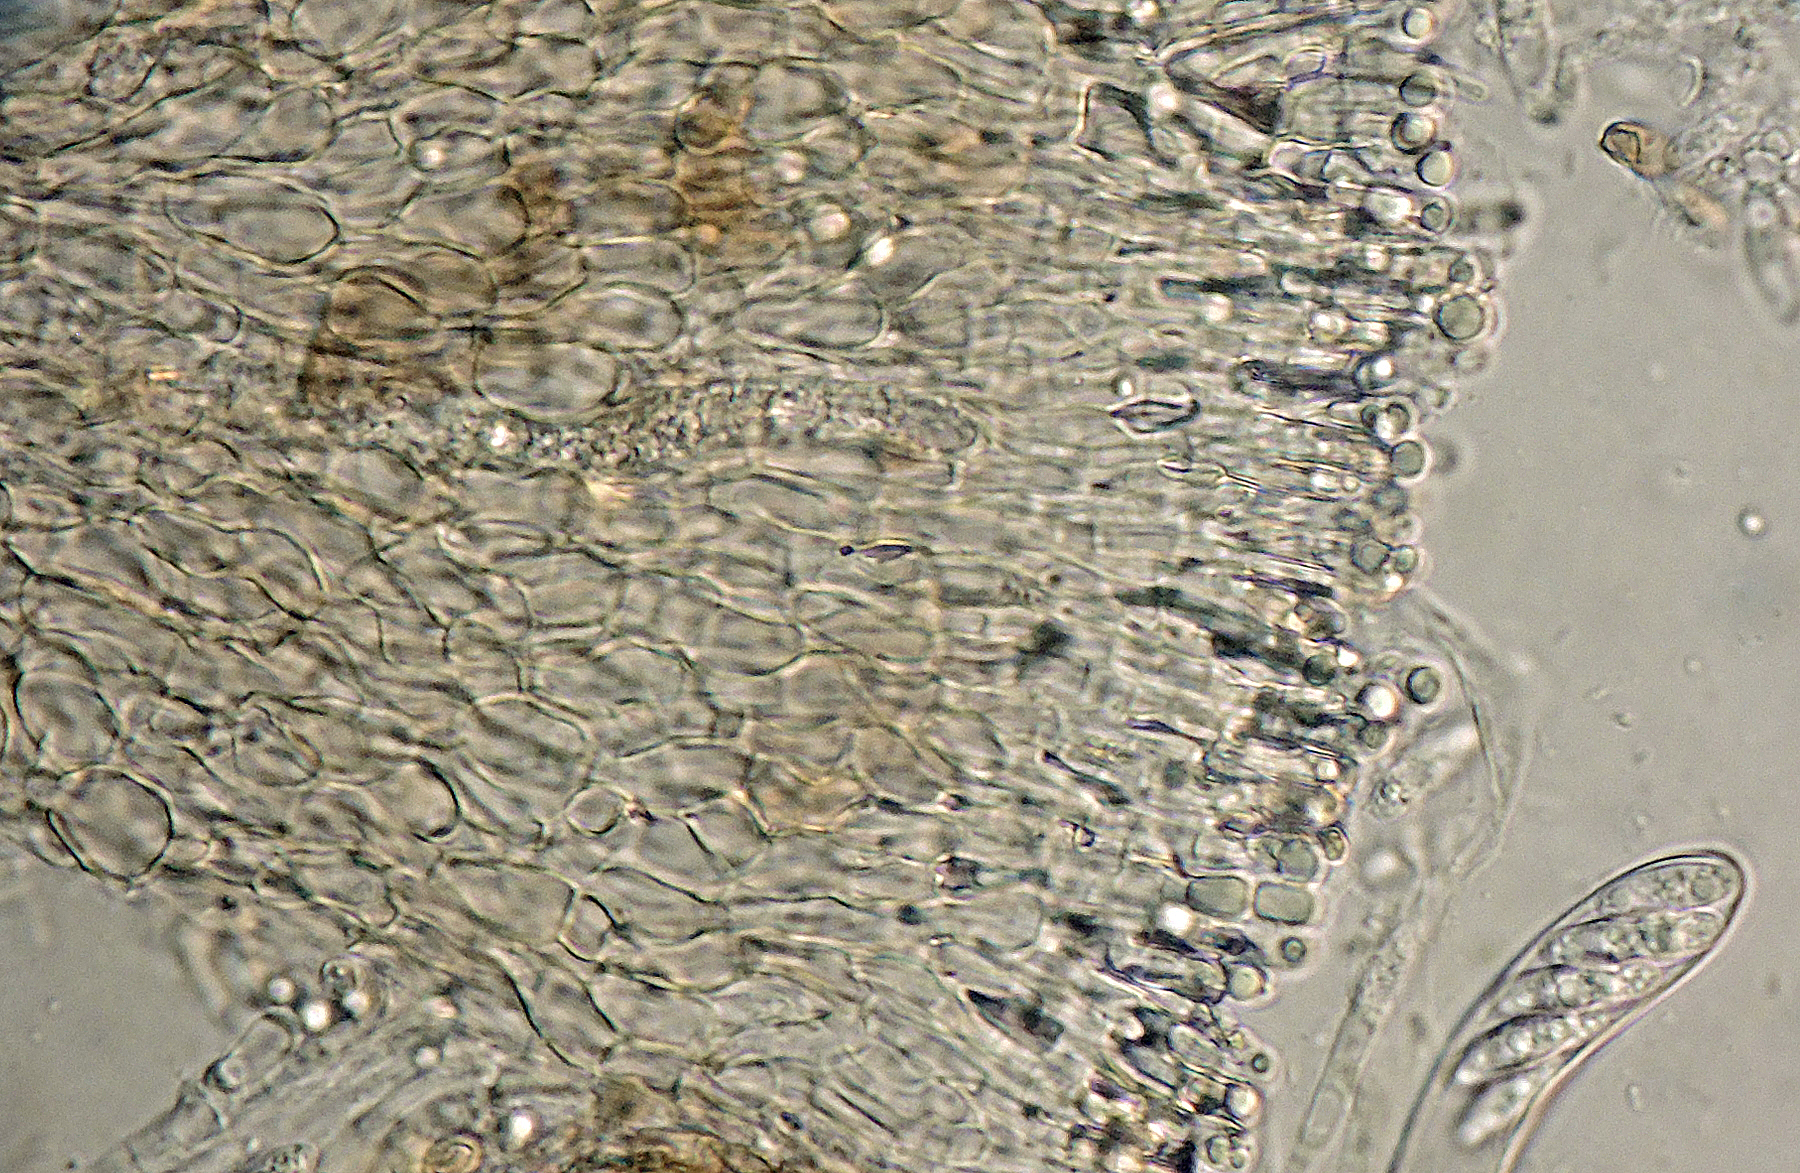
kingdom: Fungi
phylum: Ascomycota
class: Leotiomycetes
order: Helotiales
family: Pezizellaceae
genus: Calycellina
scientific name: Calycellina populina
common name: bleggul hårskive
